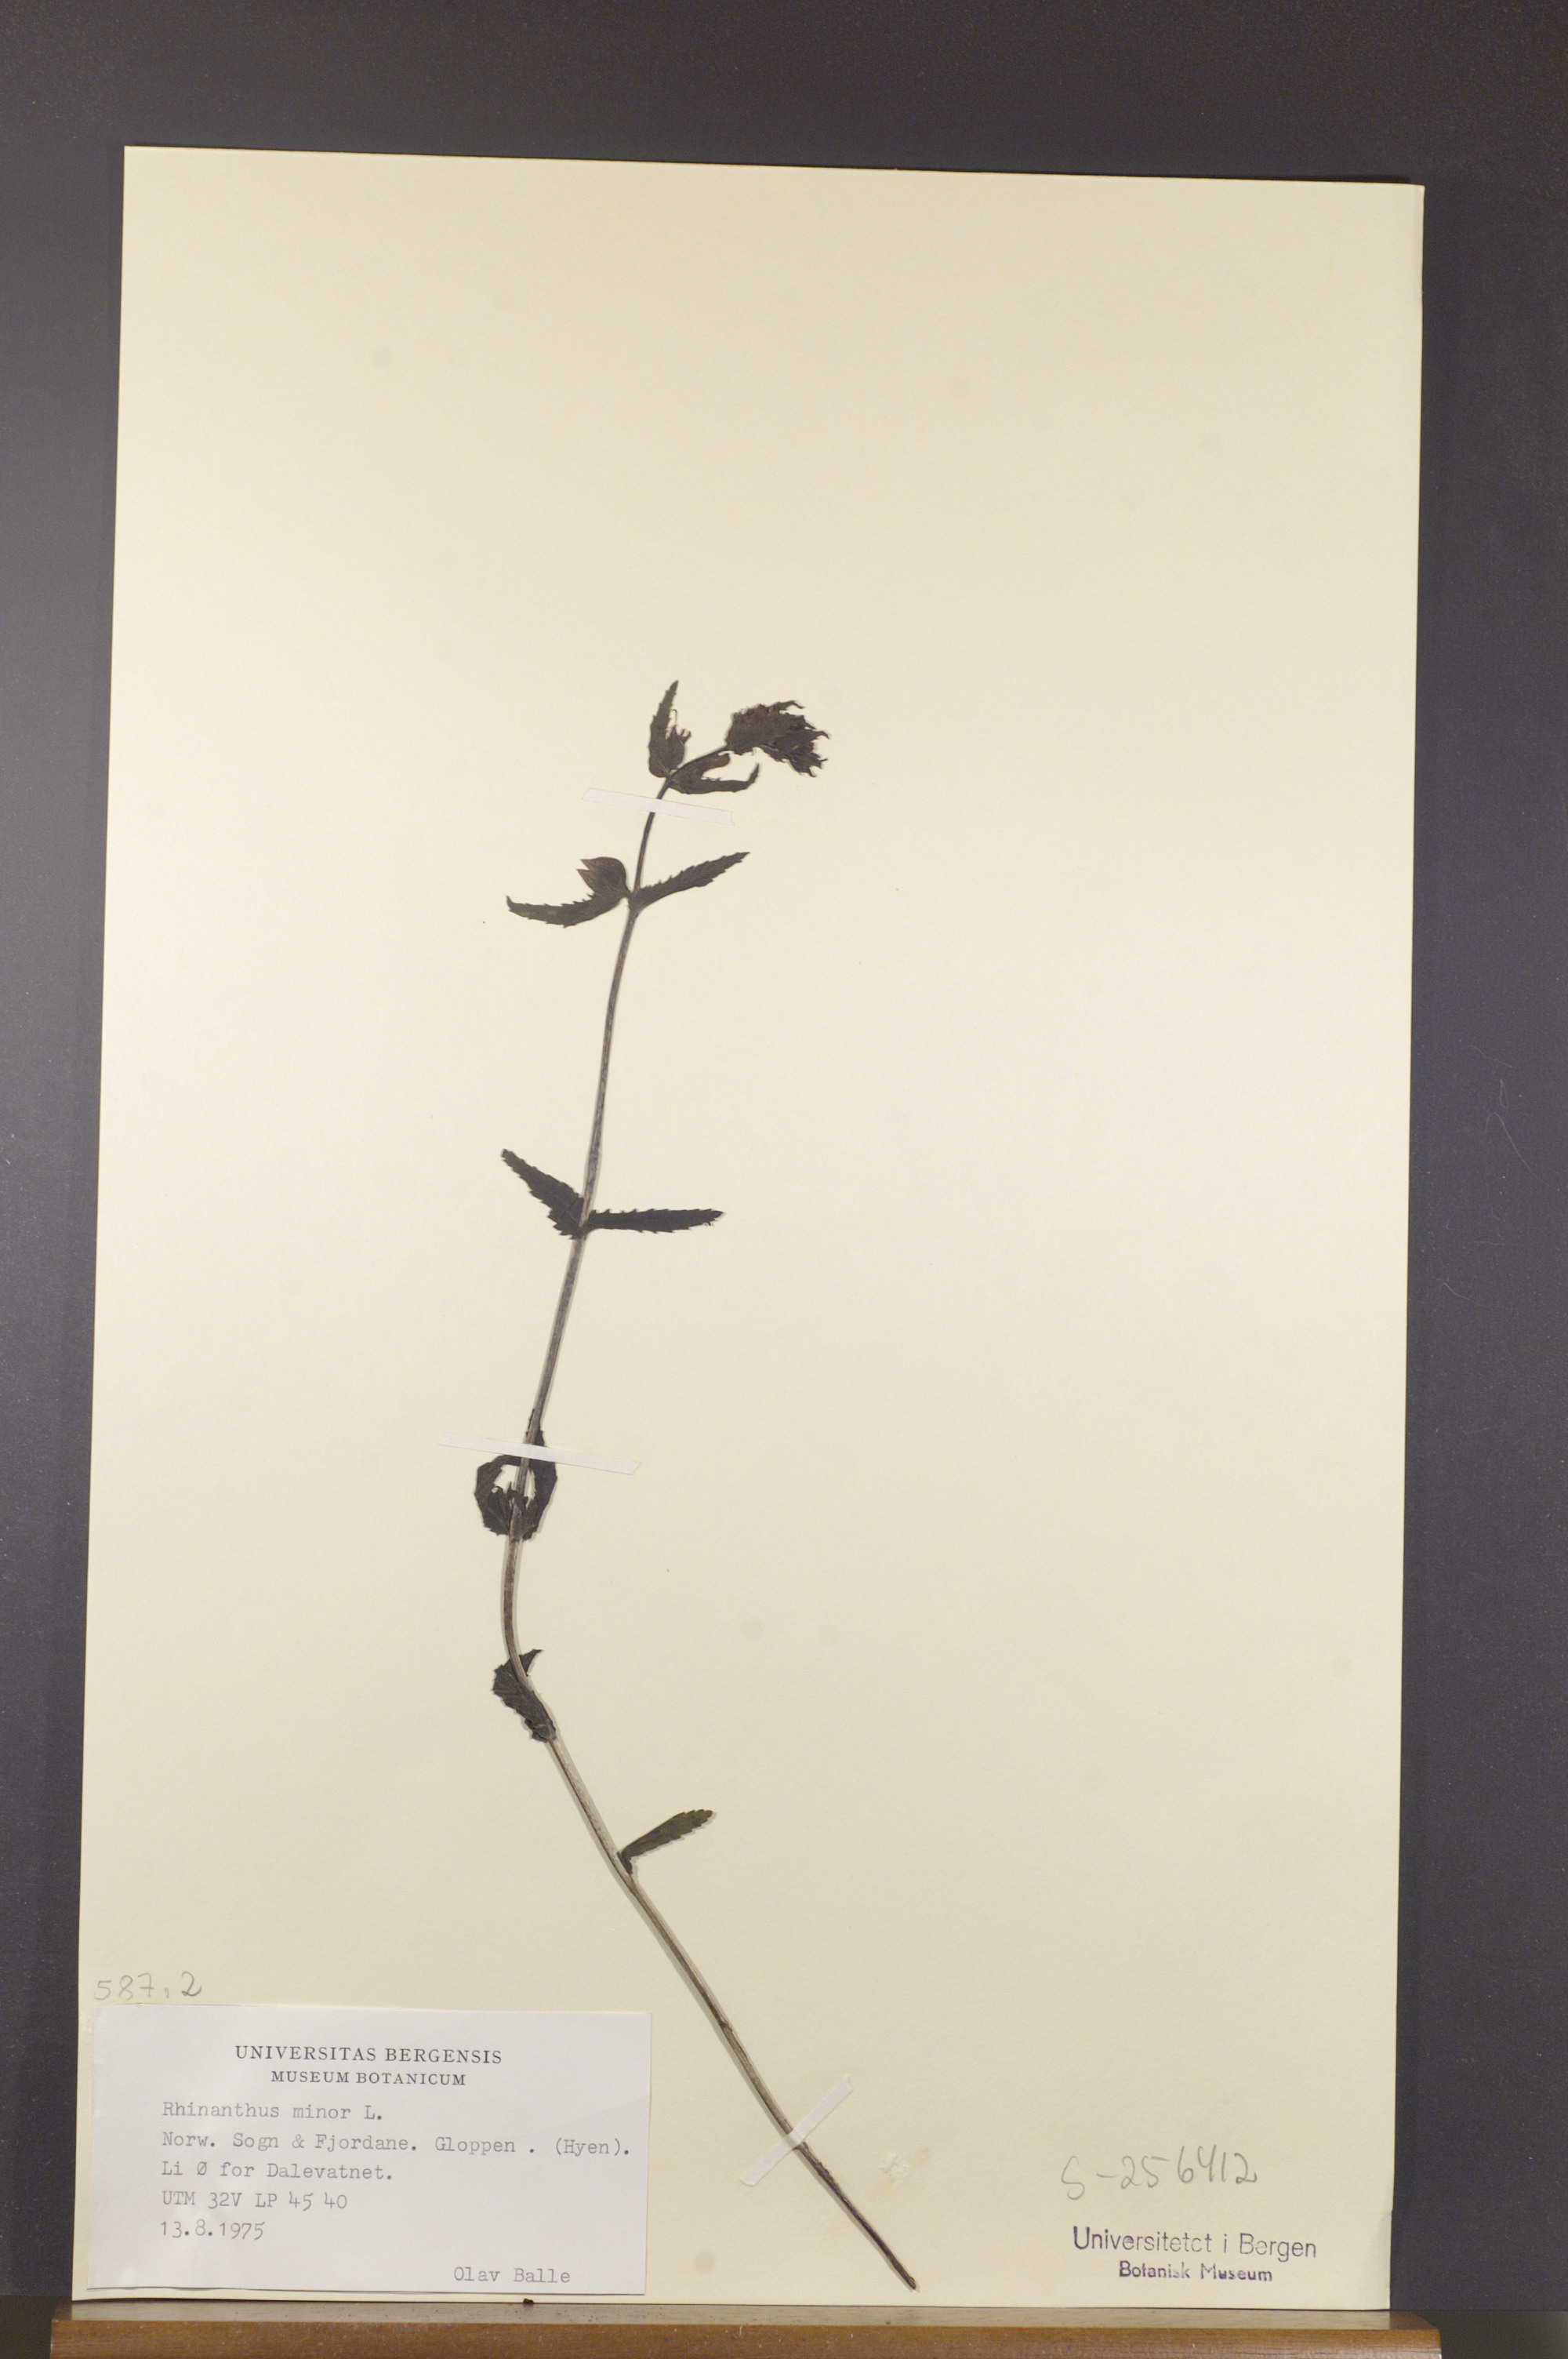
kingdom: Plantae
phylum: Tracheophyta
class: Magnoliopsida
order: Lamiales
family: Orobanchaceae
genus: Rhinanthus
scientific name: Rhinanthus minor
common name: Yellow-rattle
